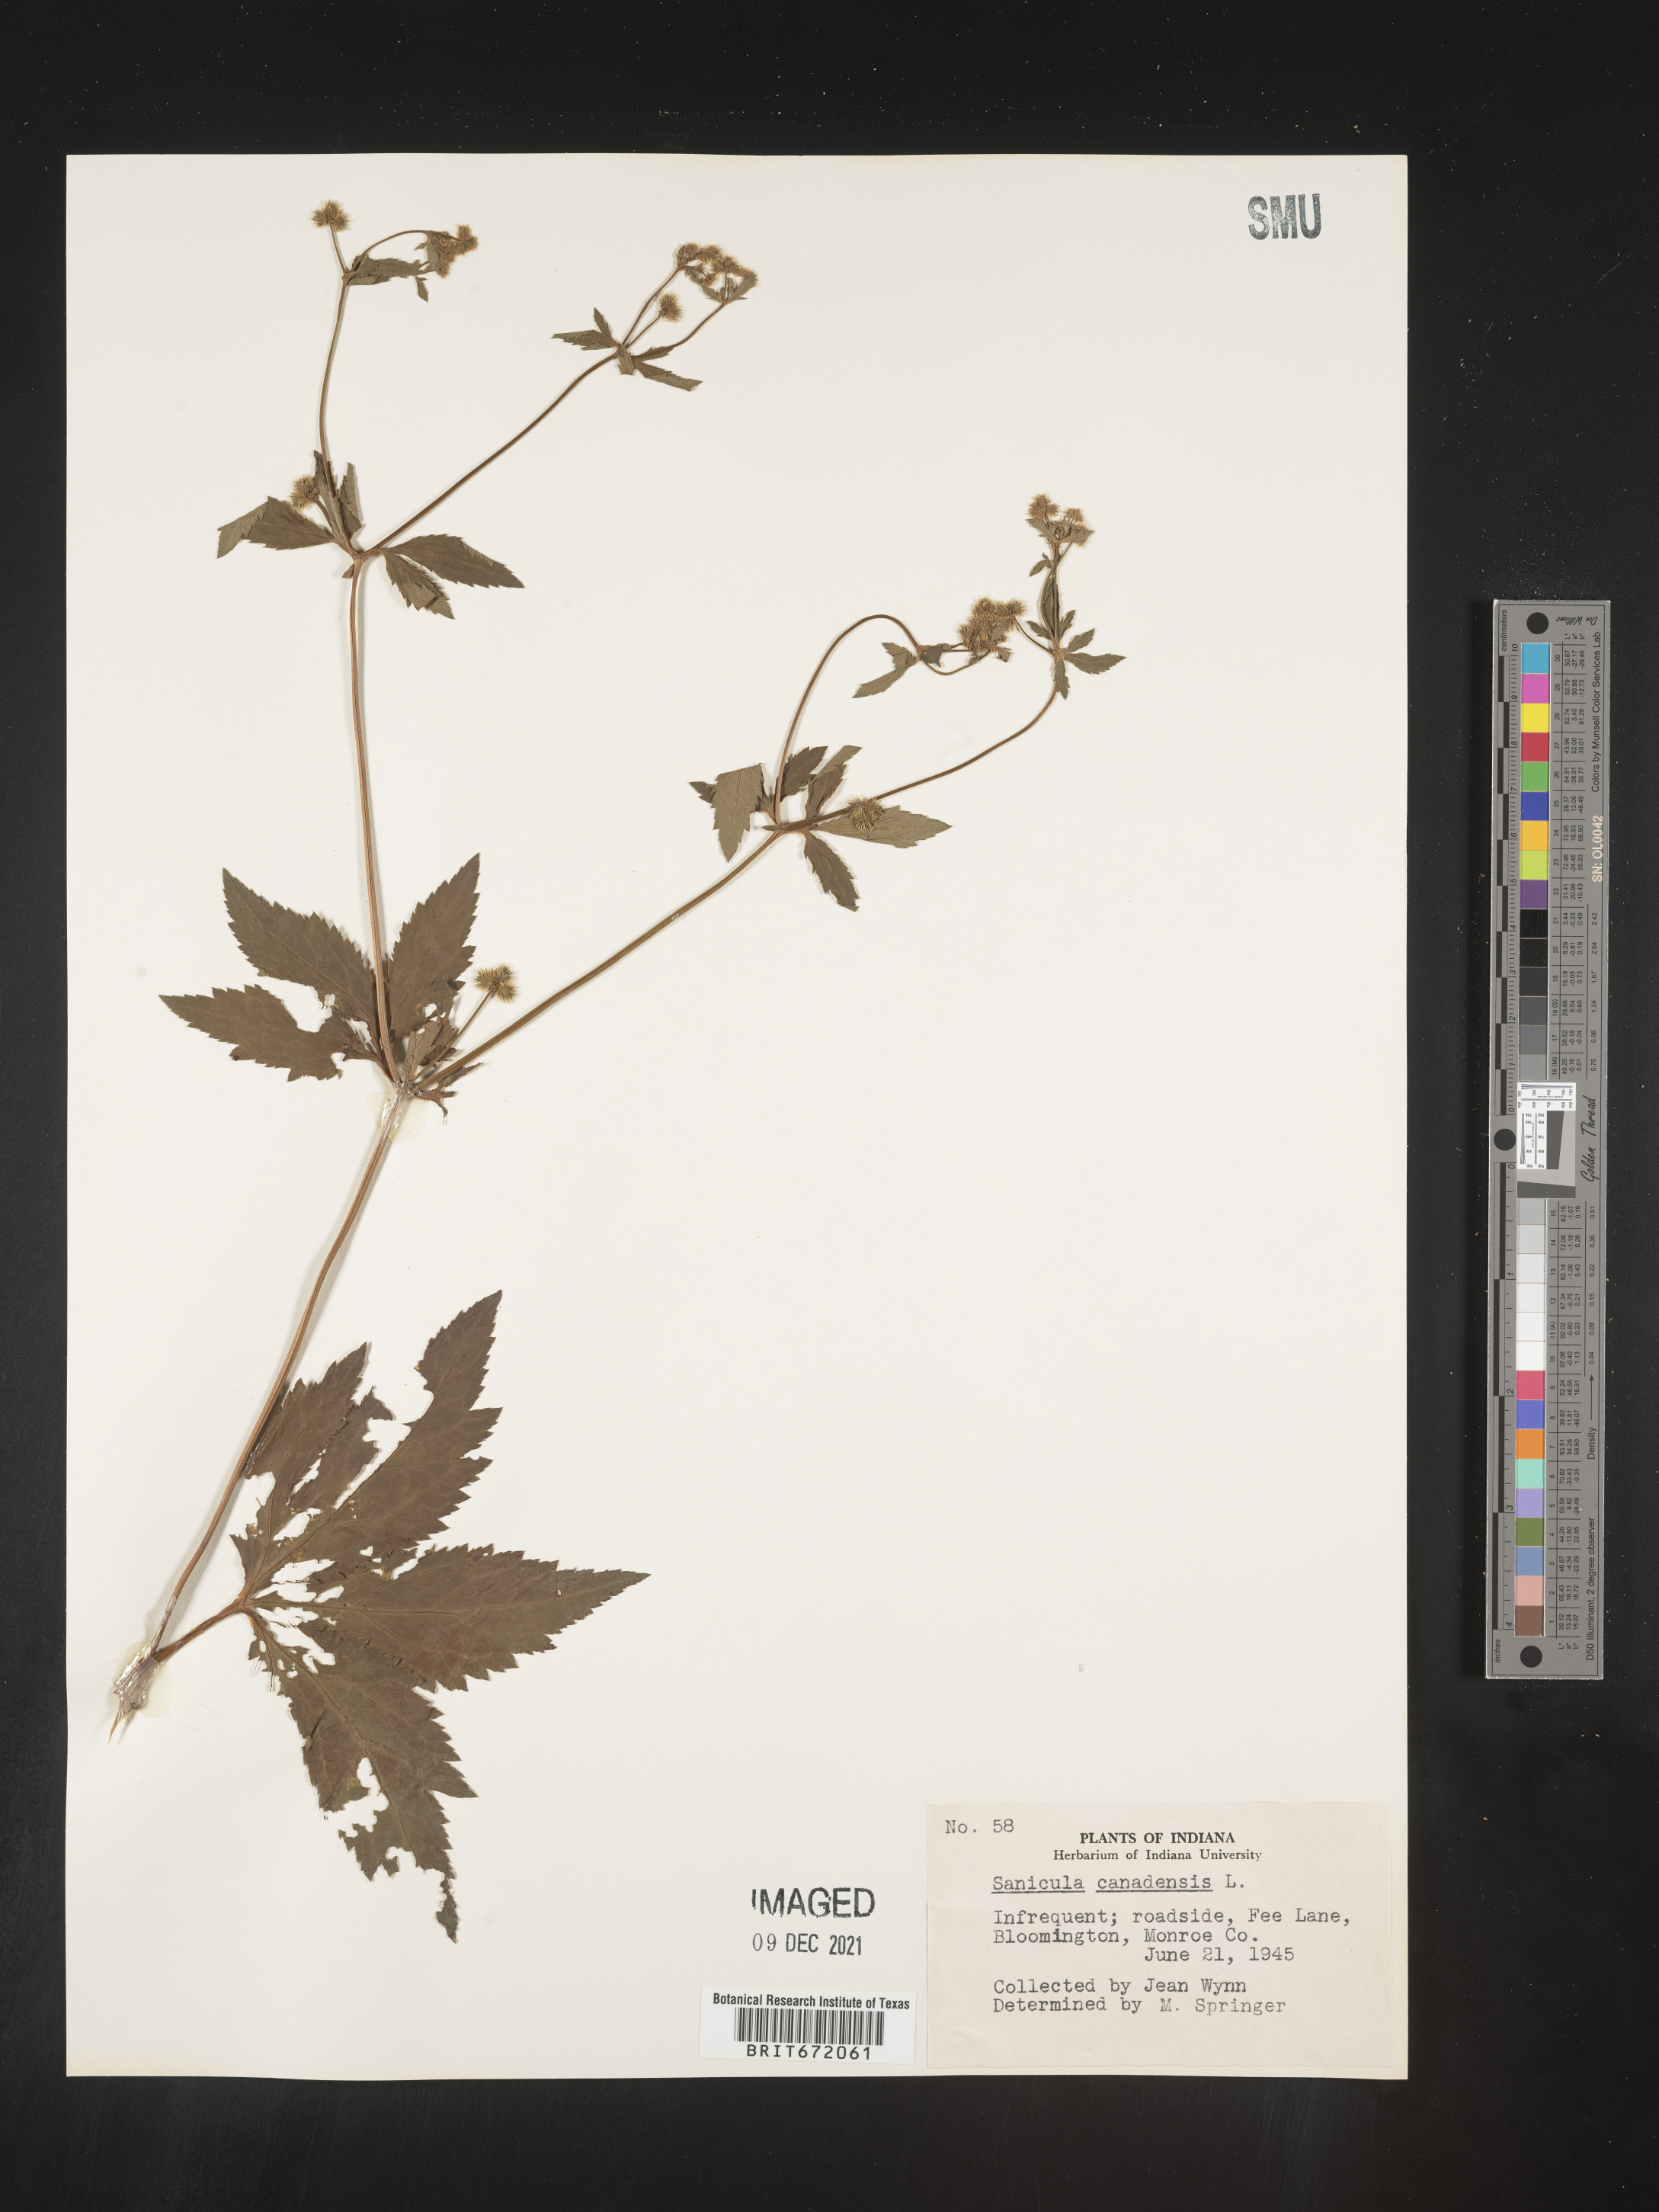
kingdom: Plantae
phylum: Tracheophyta
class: Magnoliopsida
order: Apiales
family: Apiaceae
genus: Sanicula
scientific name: Sanicula canadensis
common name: Canada sanicle
